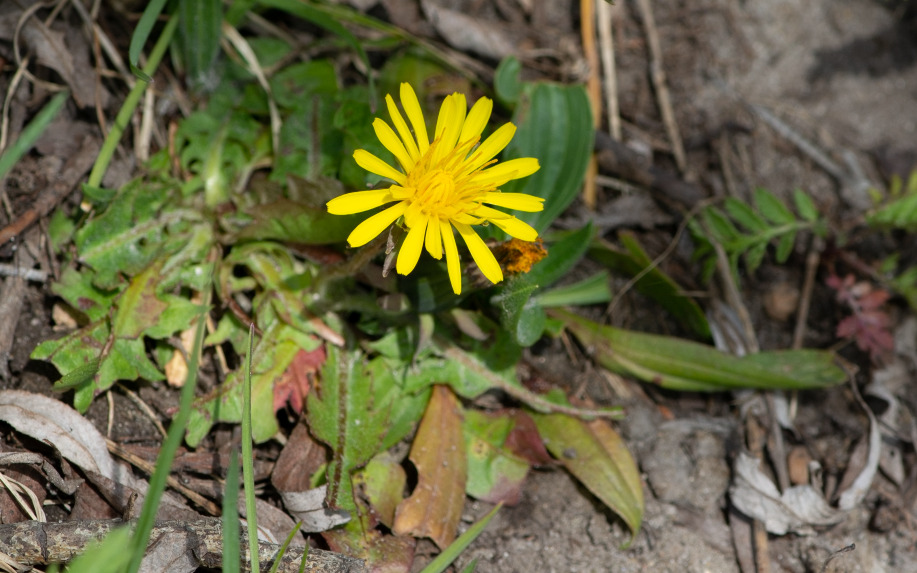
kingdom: Plantae
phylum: Tracheophyta
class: Magnoliopsida
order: Asterales
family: Asteraceae
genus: Taraxacum
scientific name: Taraxacum
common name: Mælkebøtteslægten
